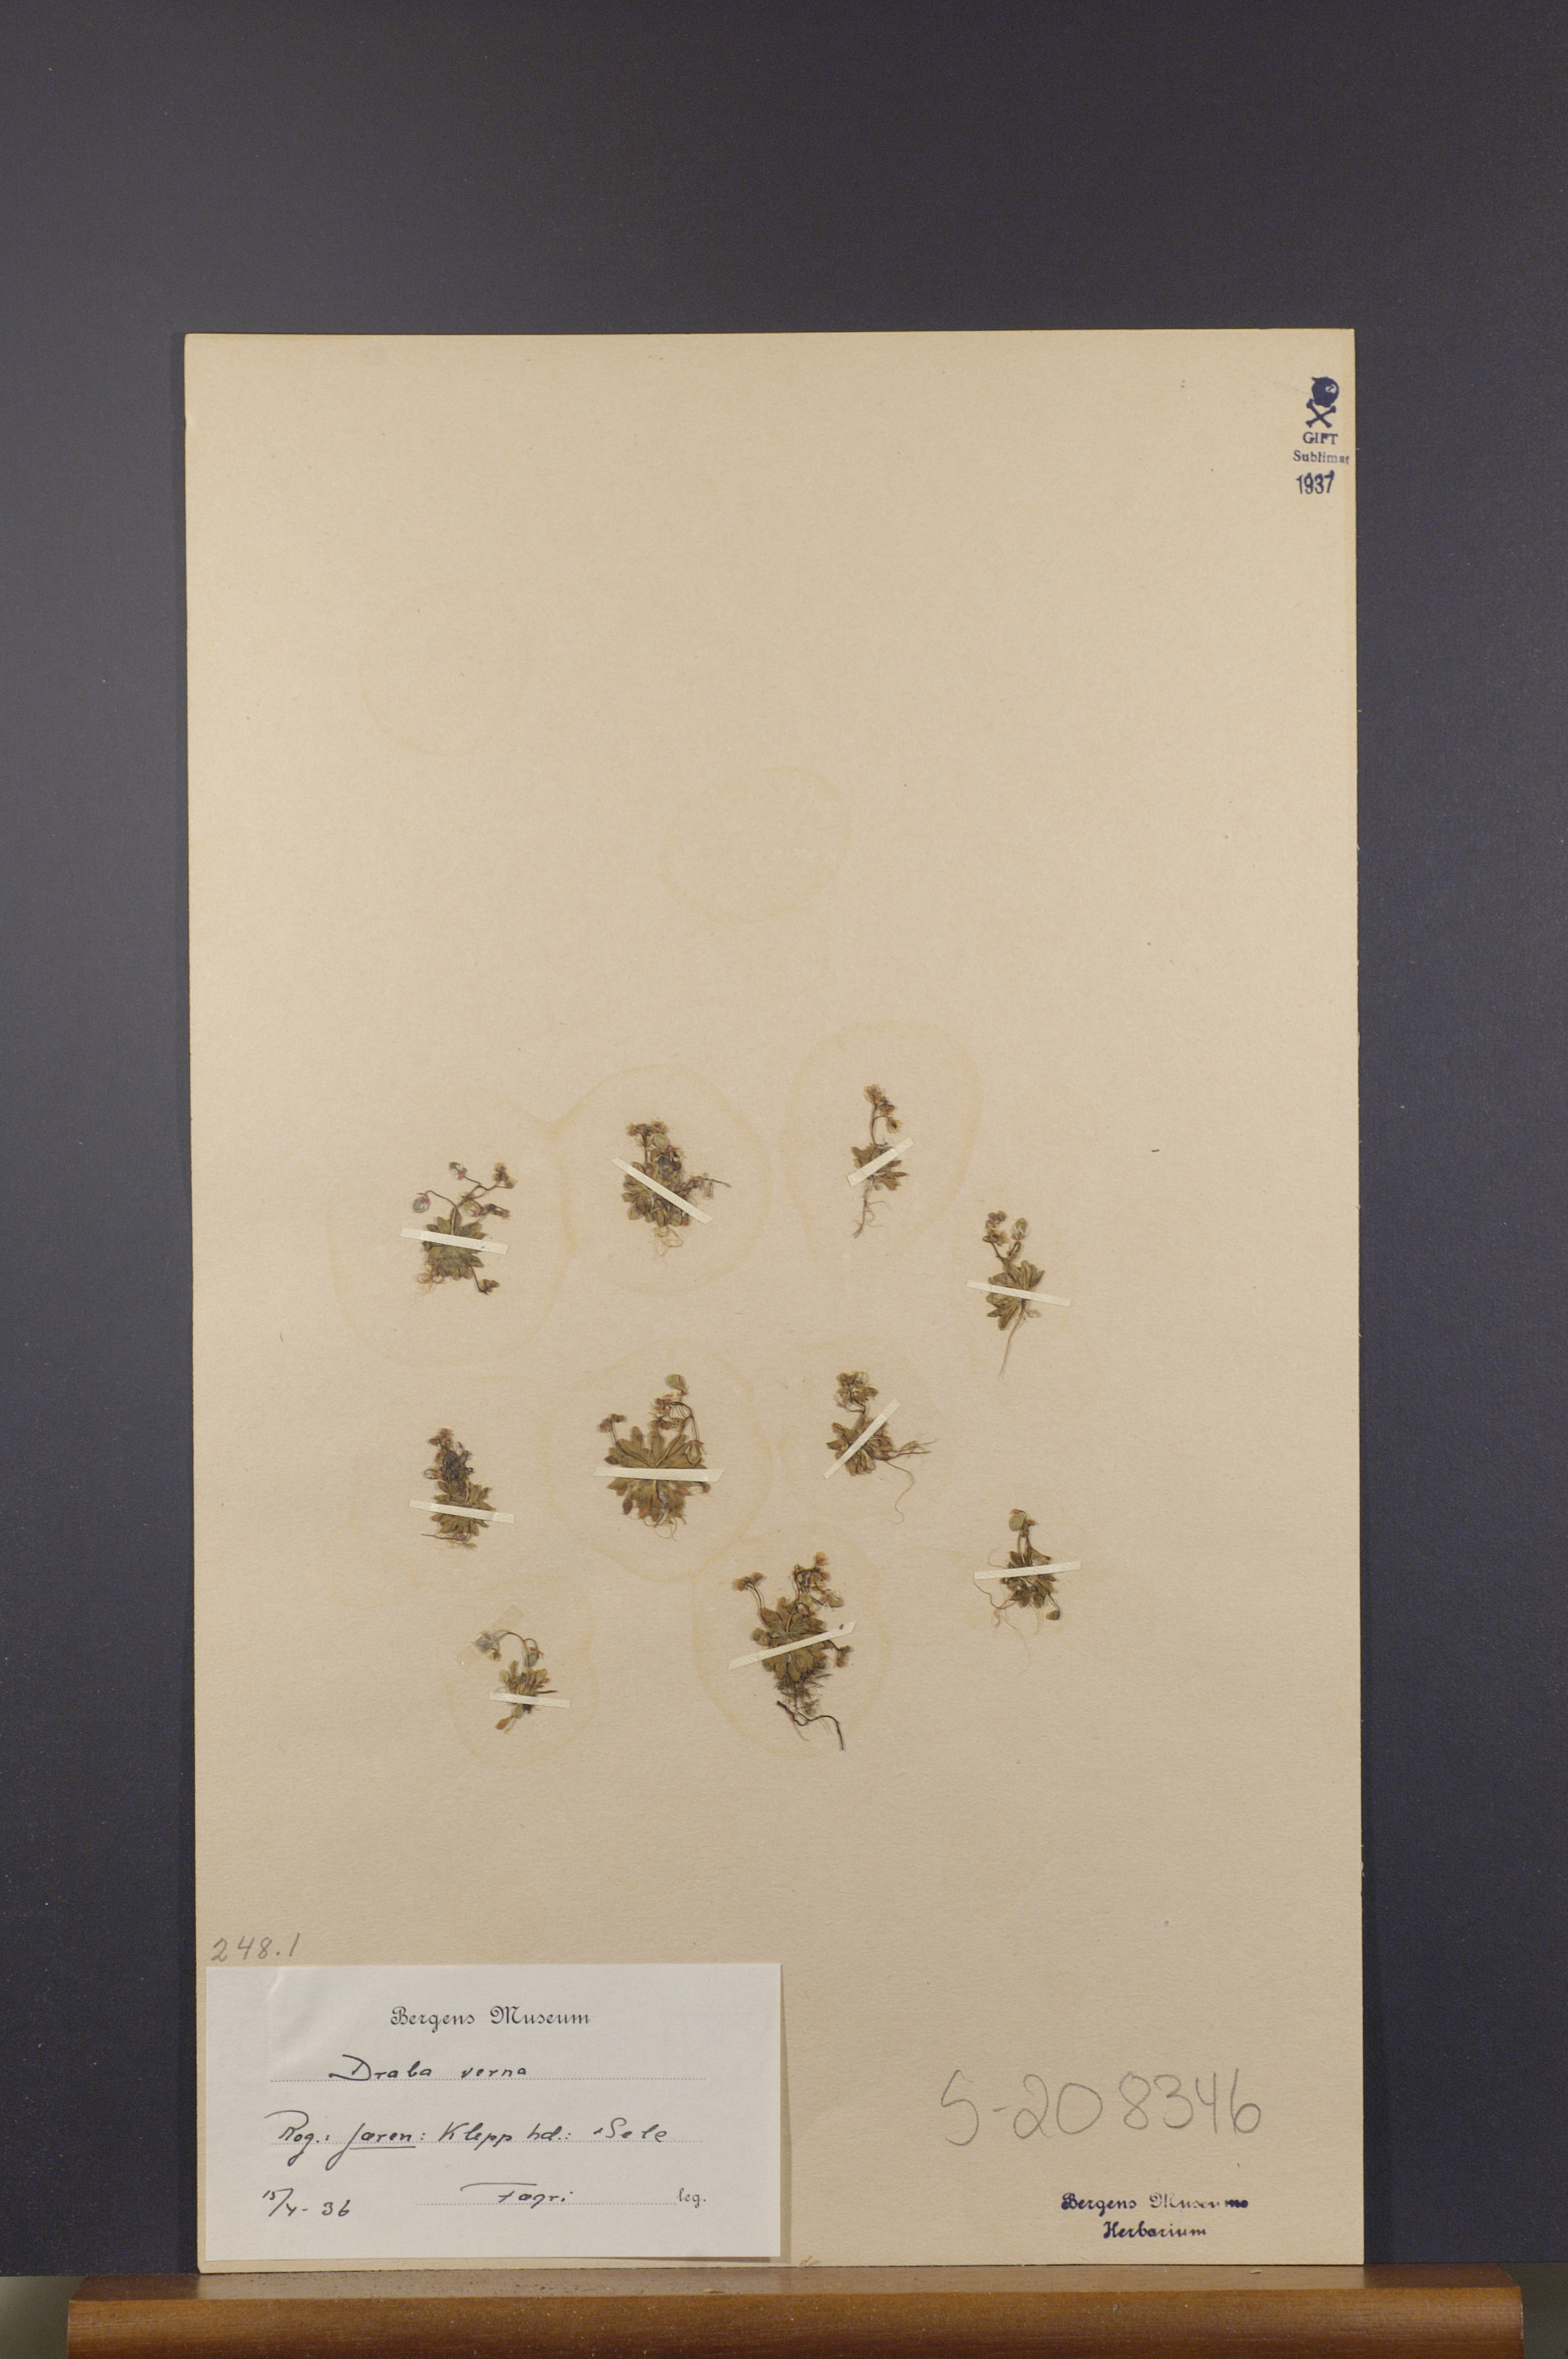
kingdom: Plantae
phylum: Tracheophyta
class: Magnoliopsida
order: Brassicales
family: Brassicaceae
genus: Draba
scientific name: Draba verna
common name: Spring draba
